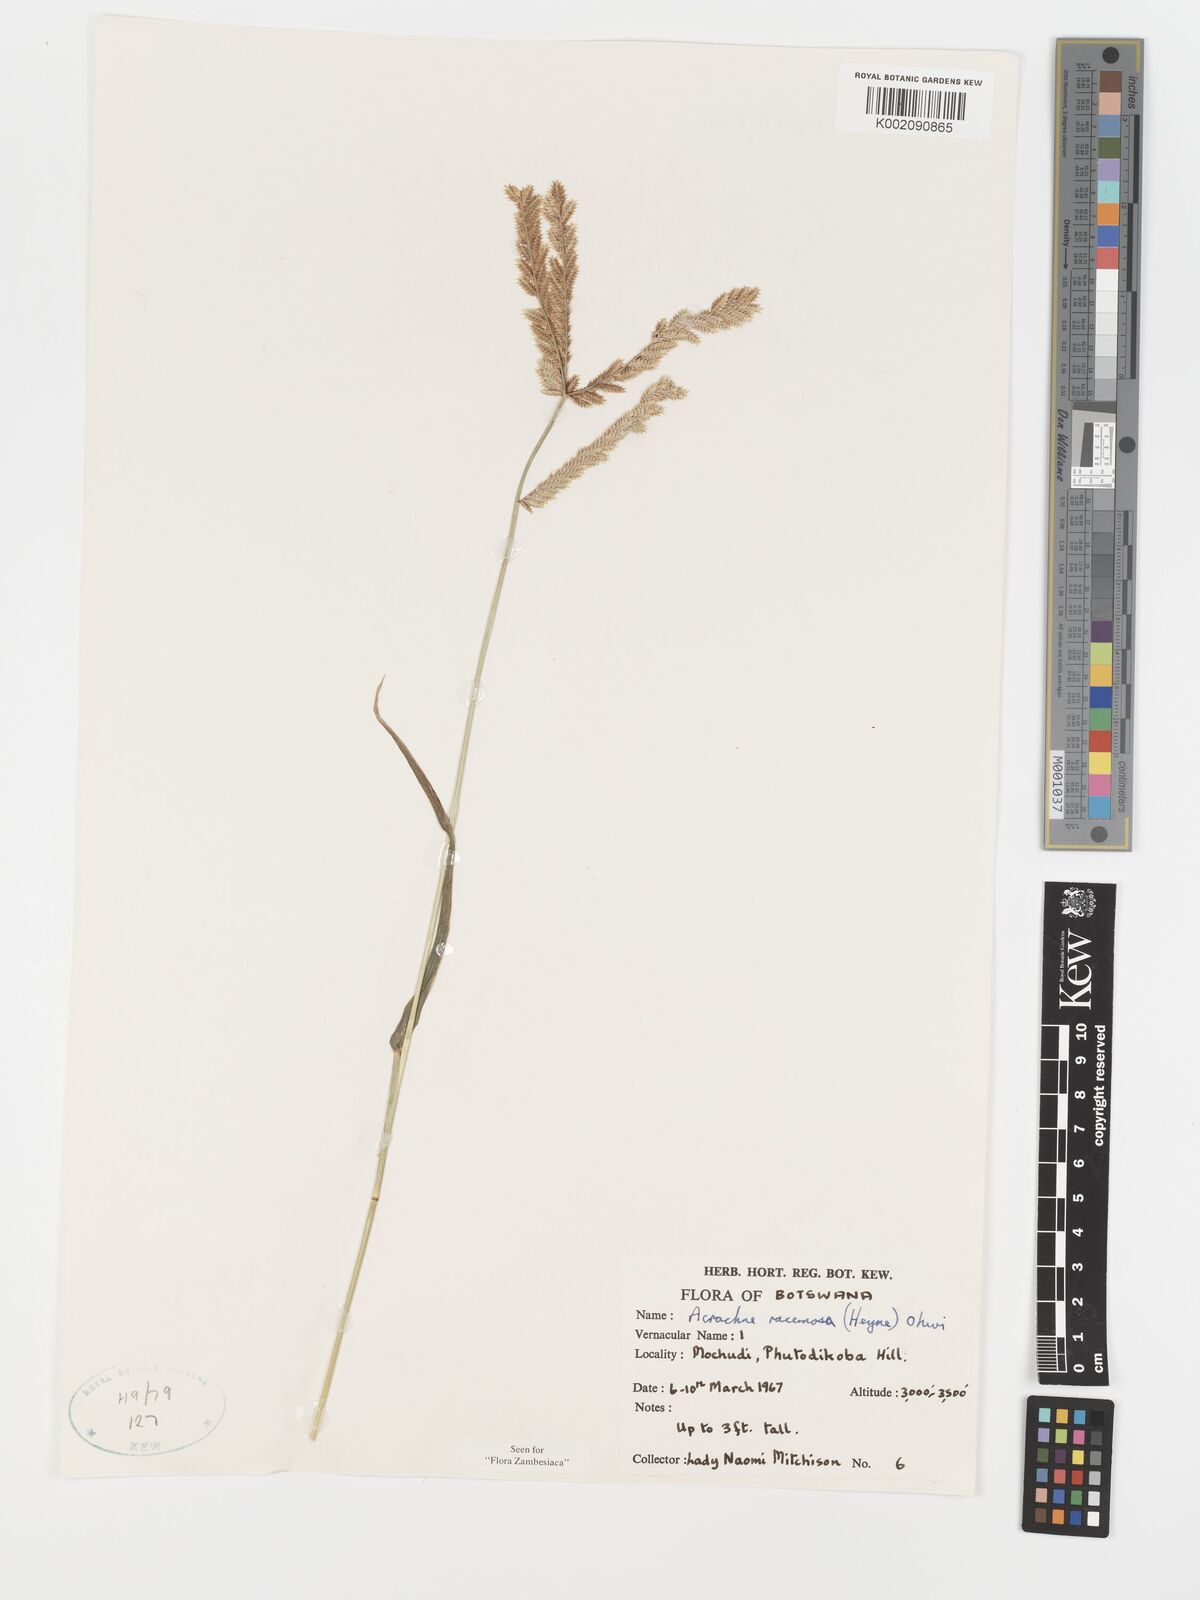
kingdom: Plantae
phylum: Tracheophyta
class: Liliopsida
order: Poales
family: Poaceae
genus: Acrachne
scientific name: Acrachne racemosa
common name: Goosegrass
